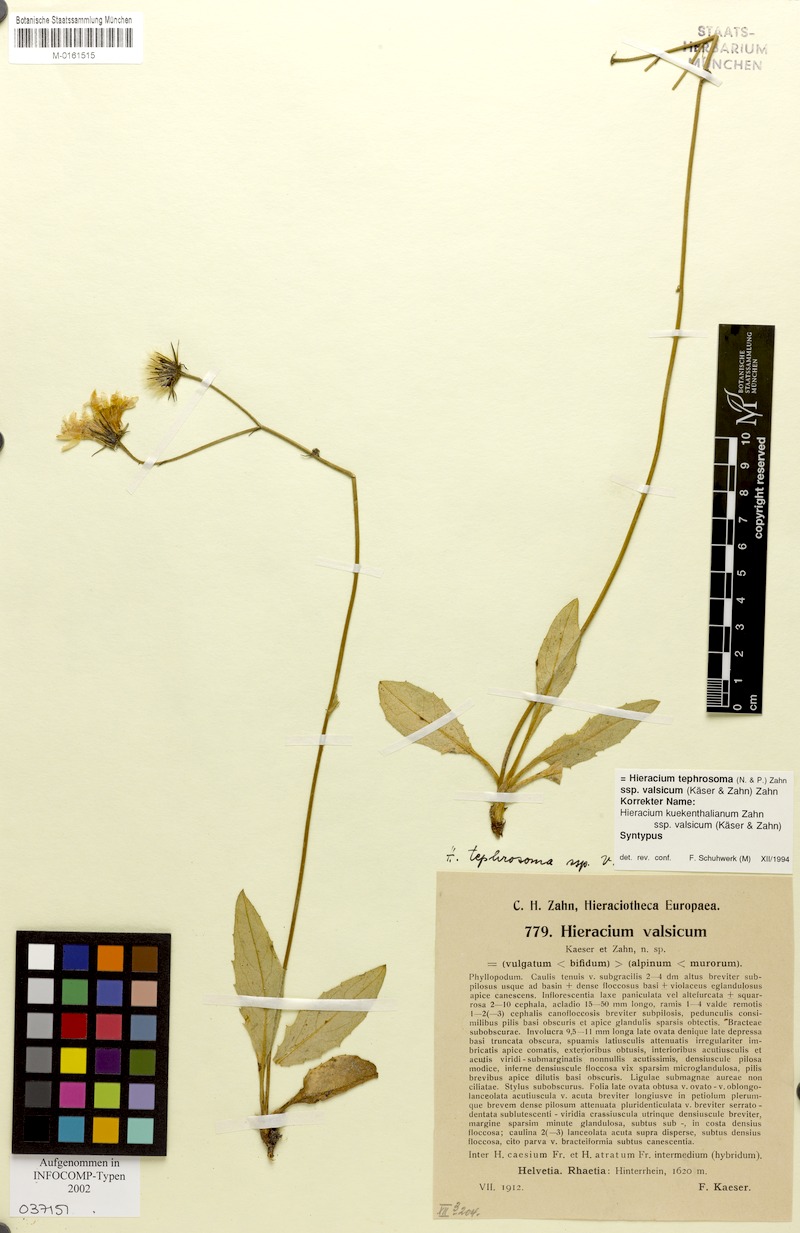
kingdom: Plantae
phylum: Tracheophyta
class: Magnoliopsida
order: Asterales
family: Asteraceae
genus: Hieracium
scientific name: Hieracium tephrosoma
